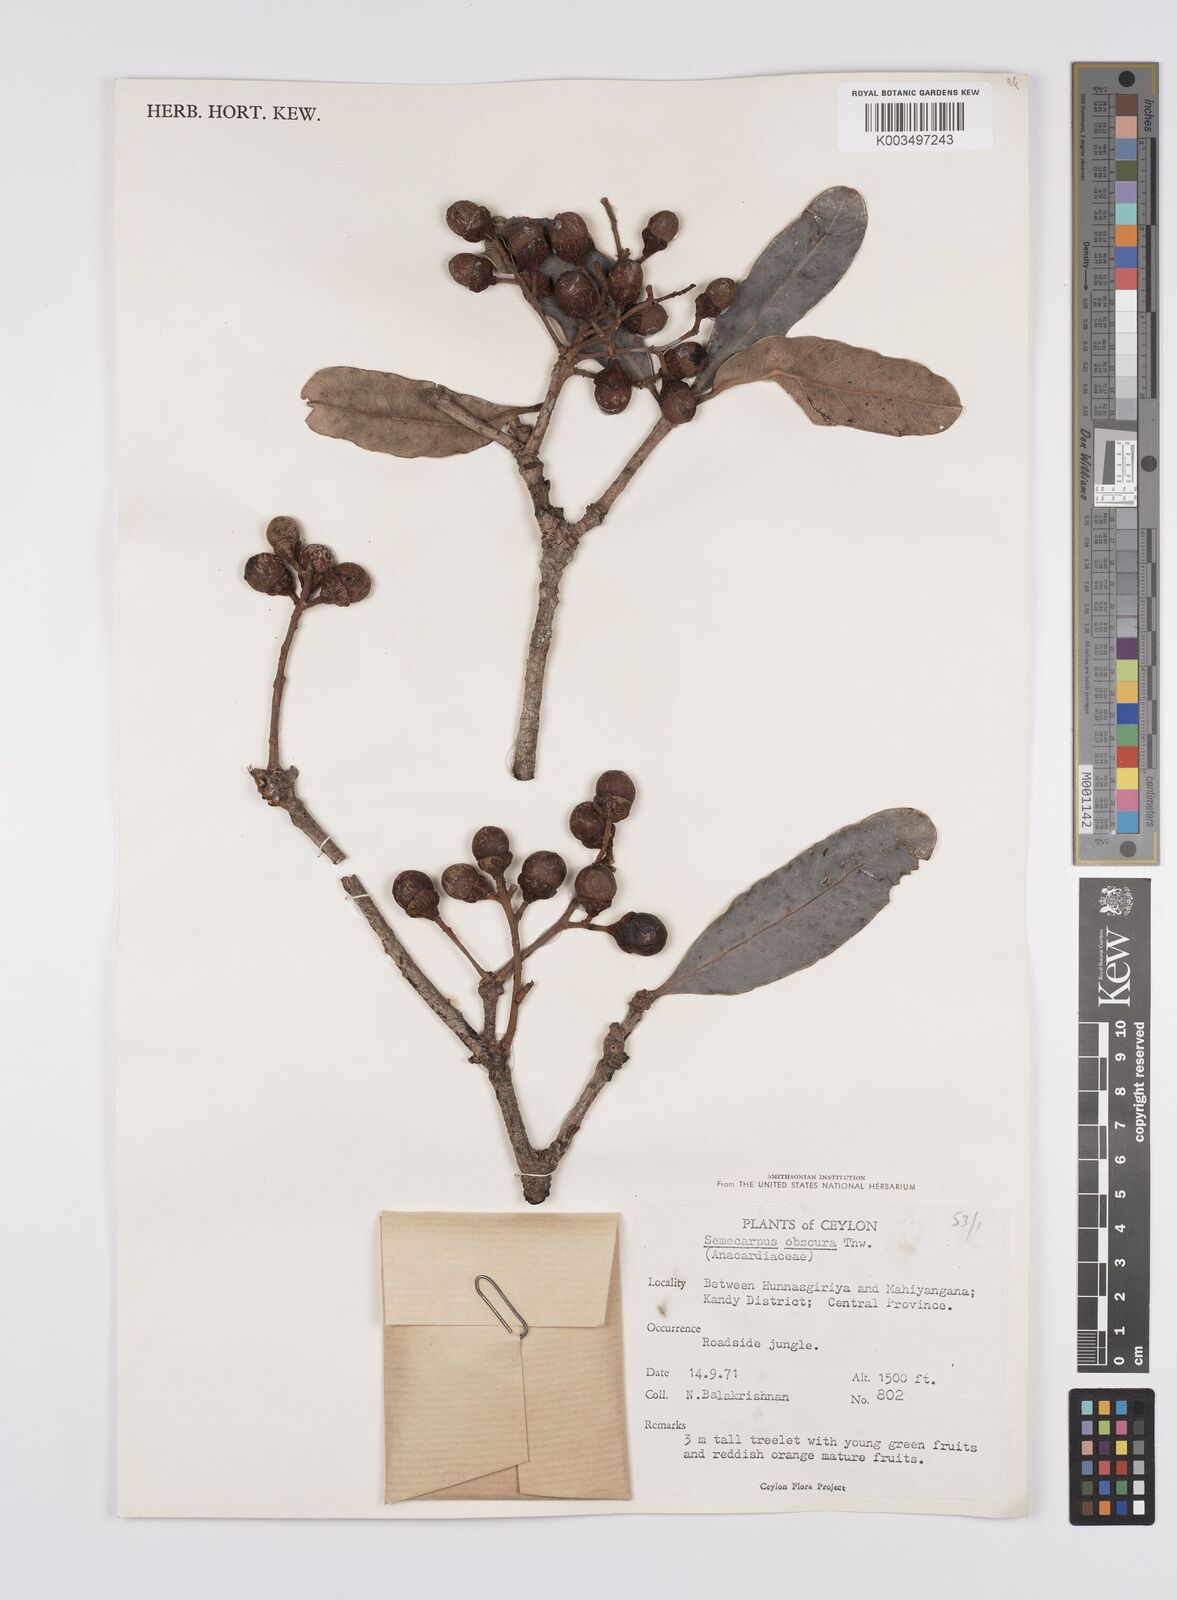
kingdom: Plantae
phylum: Tracheophyta
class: Magnoliopsida
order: Sapindales
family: Anacardiaceae
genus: Semecarpus
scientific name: Semecarpus walkeri
